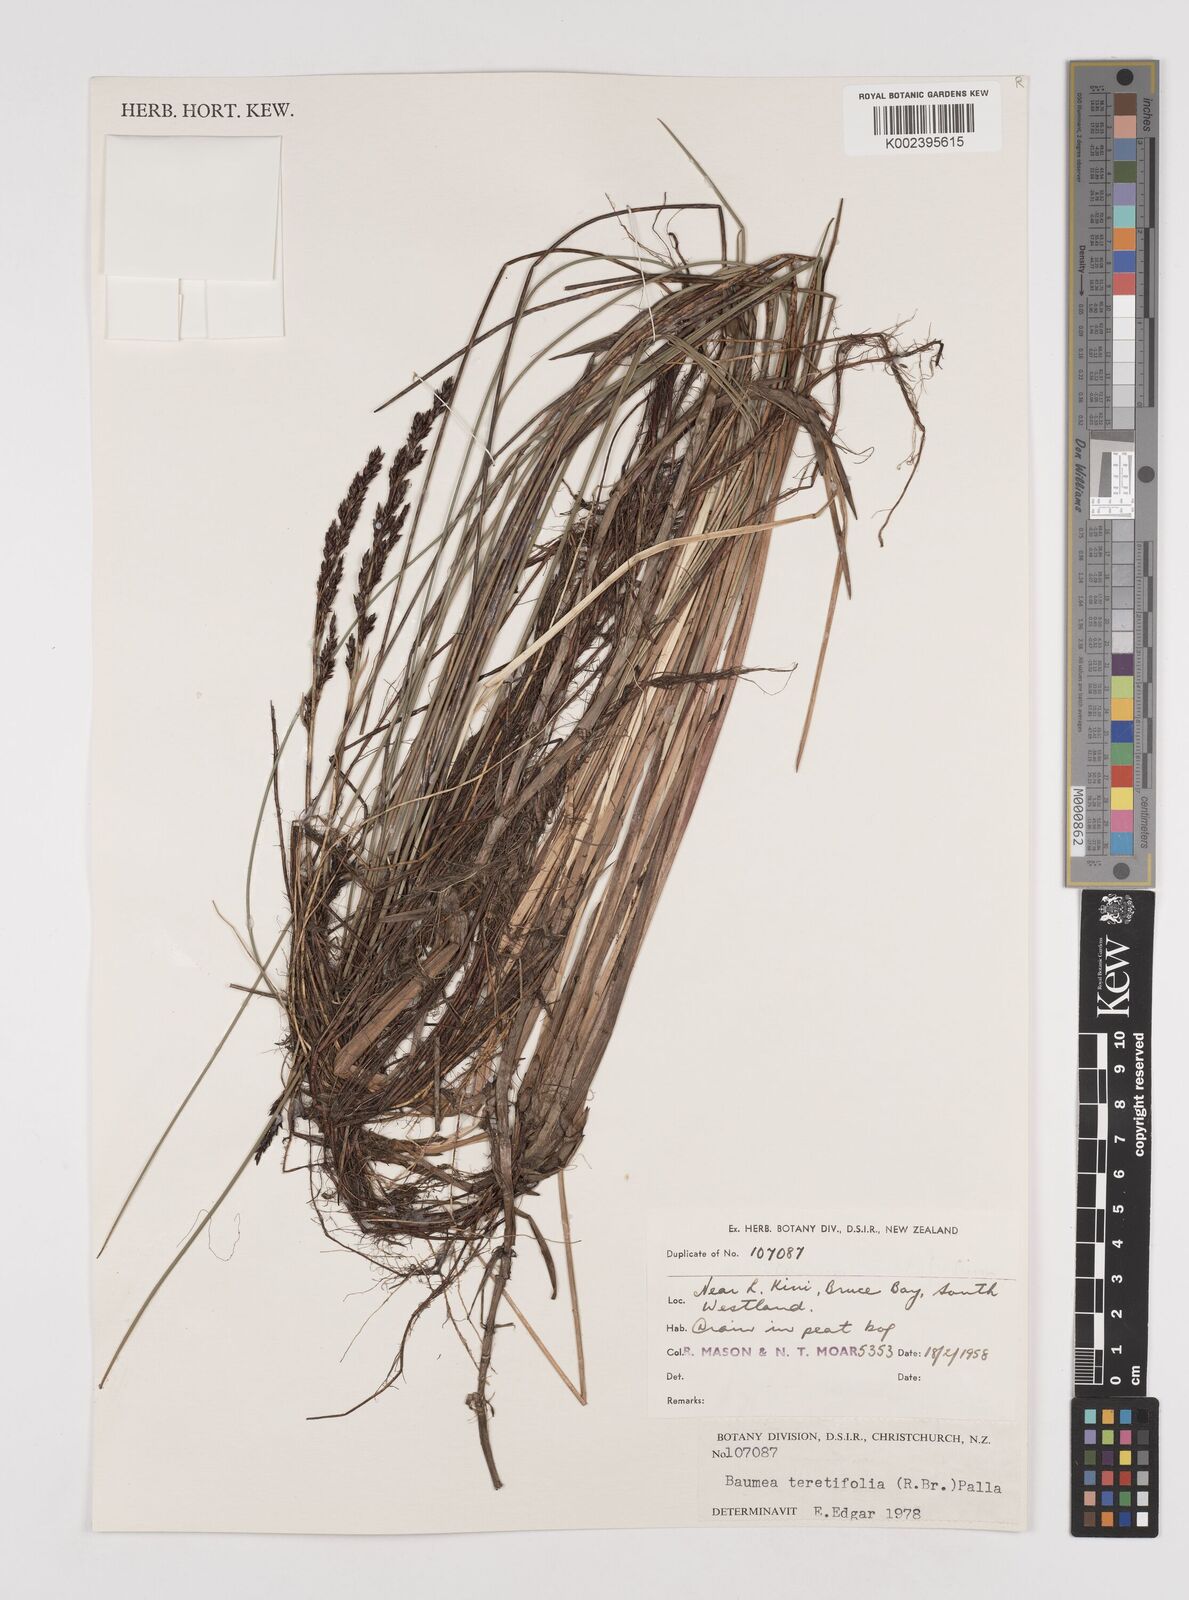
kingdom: Plantae
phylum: Tracheophyta
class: Liliopsida
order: Poales
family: Cyperaceae
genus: Machaerina
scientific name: Machaerina teretifolia
